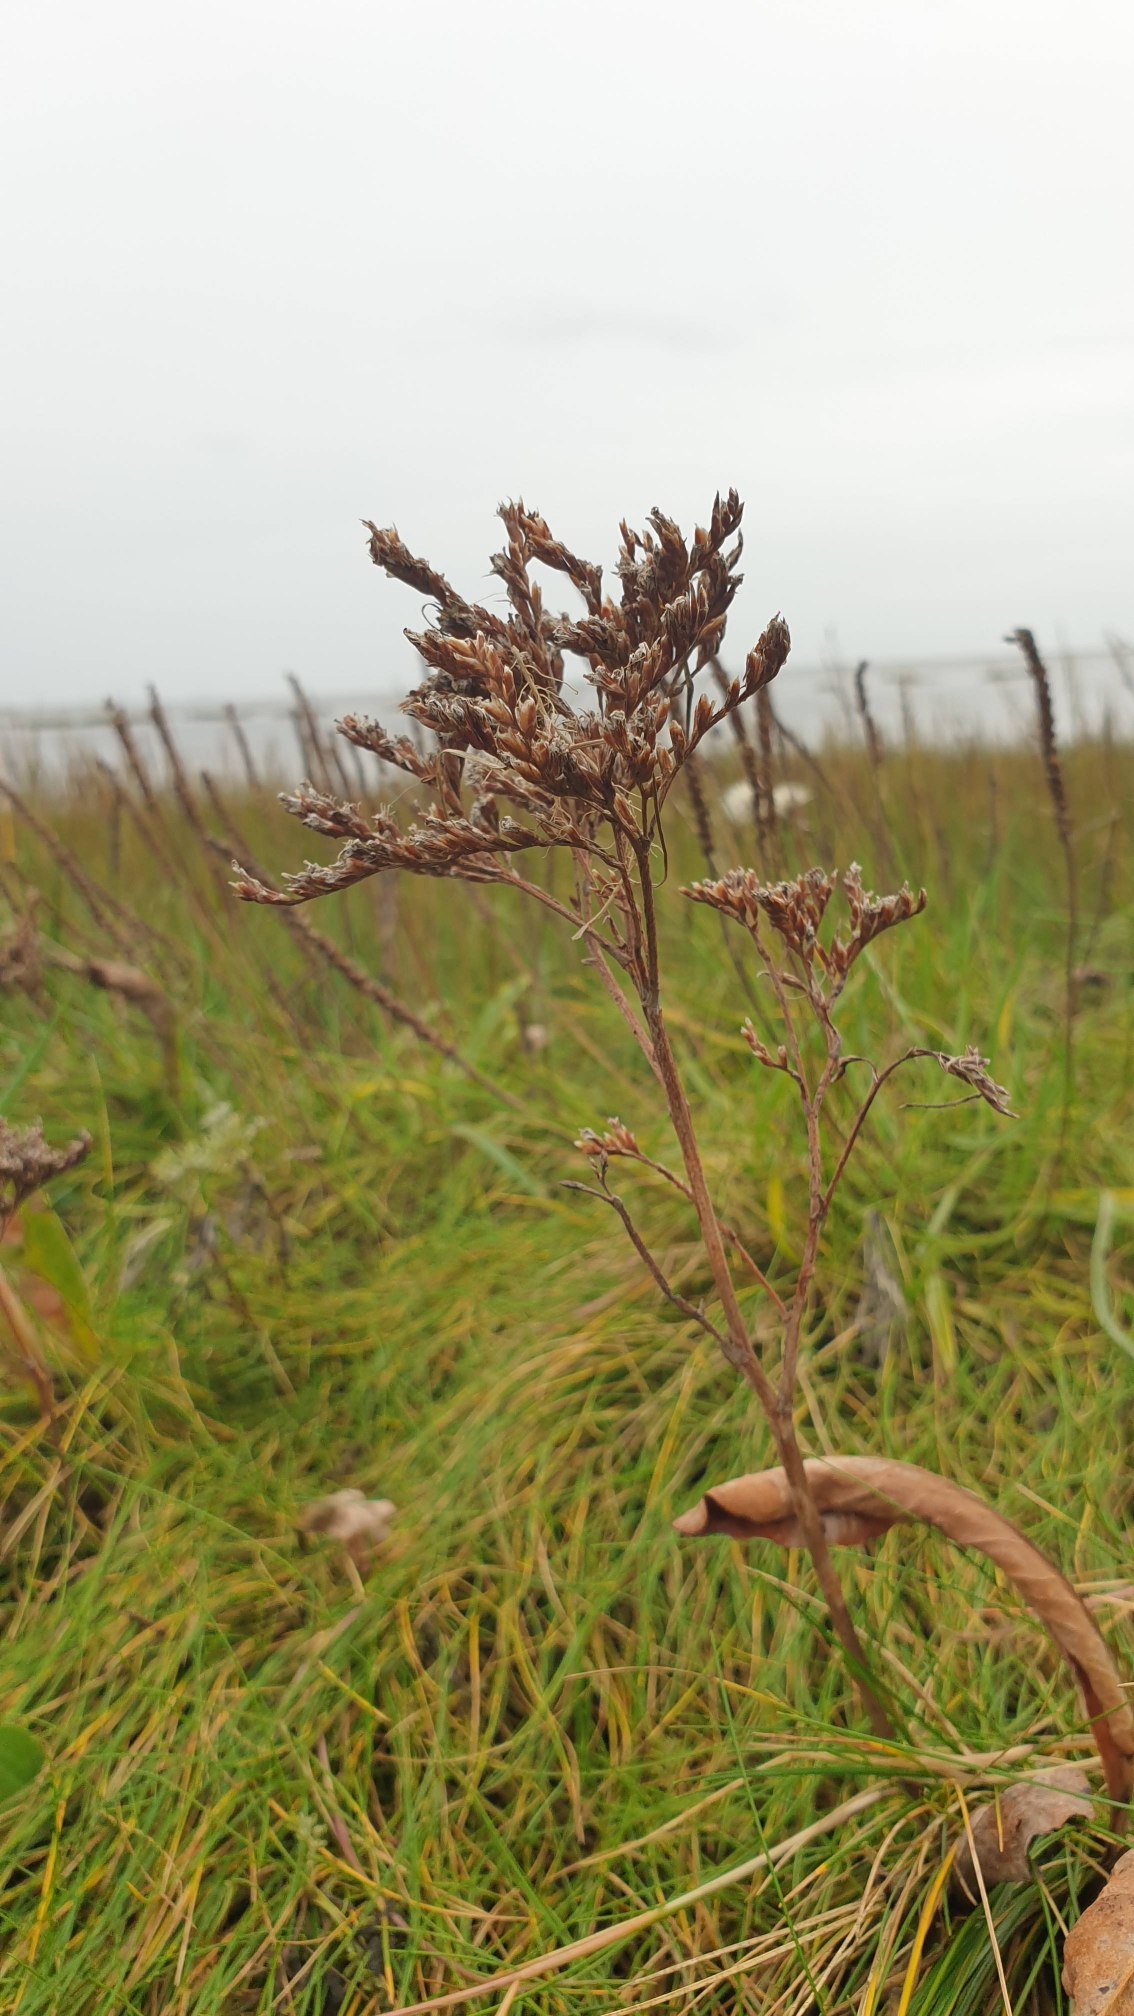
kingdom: Plantae
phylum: Tracheophyta
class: Magnoliopsida
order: Caryophyllales
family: Plumbaginaceae
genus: Limonium
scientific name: Limonium vulgare
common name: Tætblomstret hindebæger
